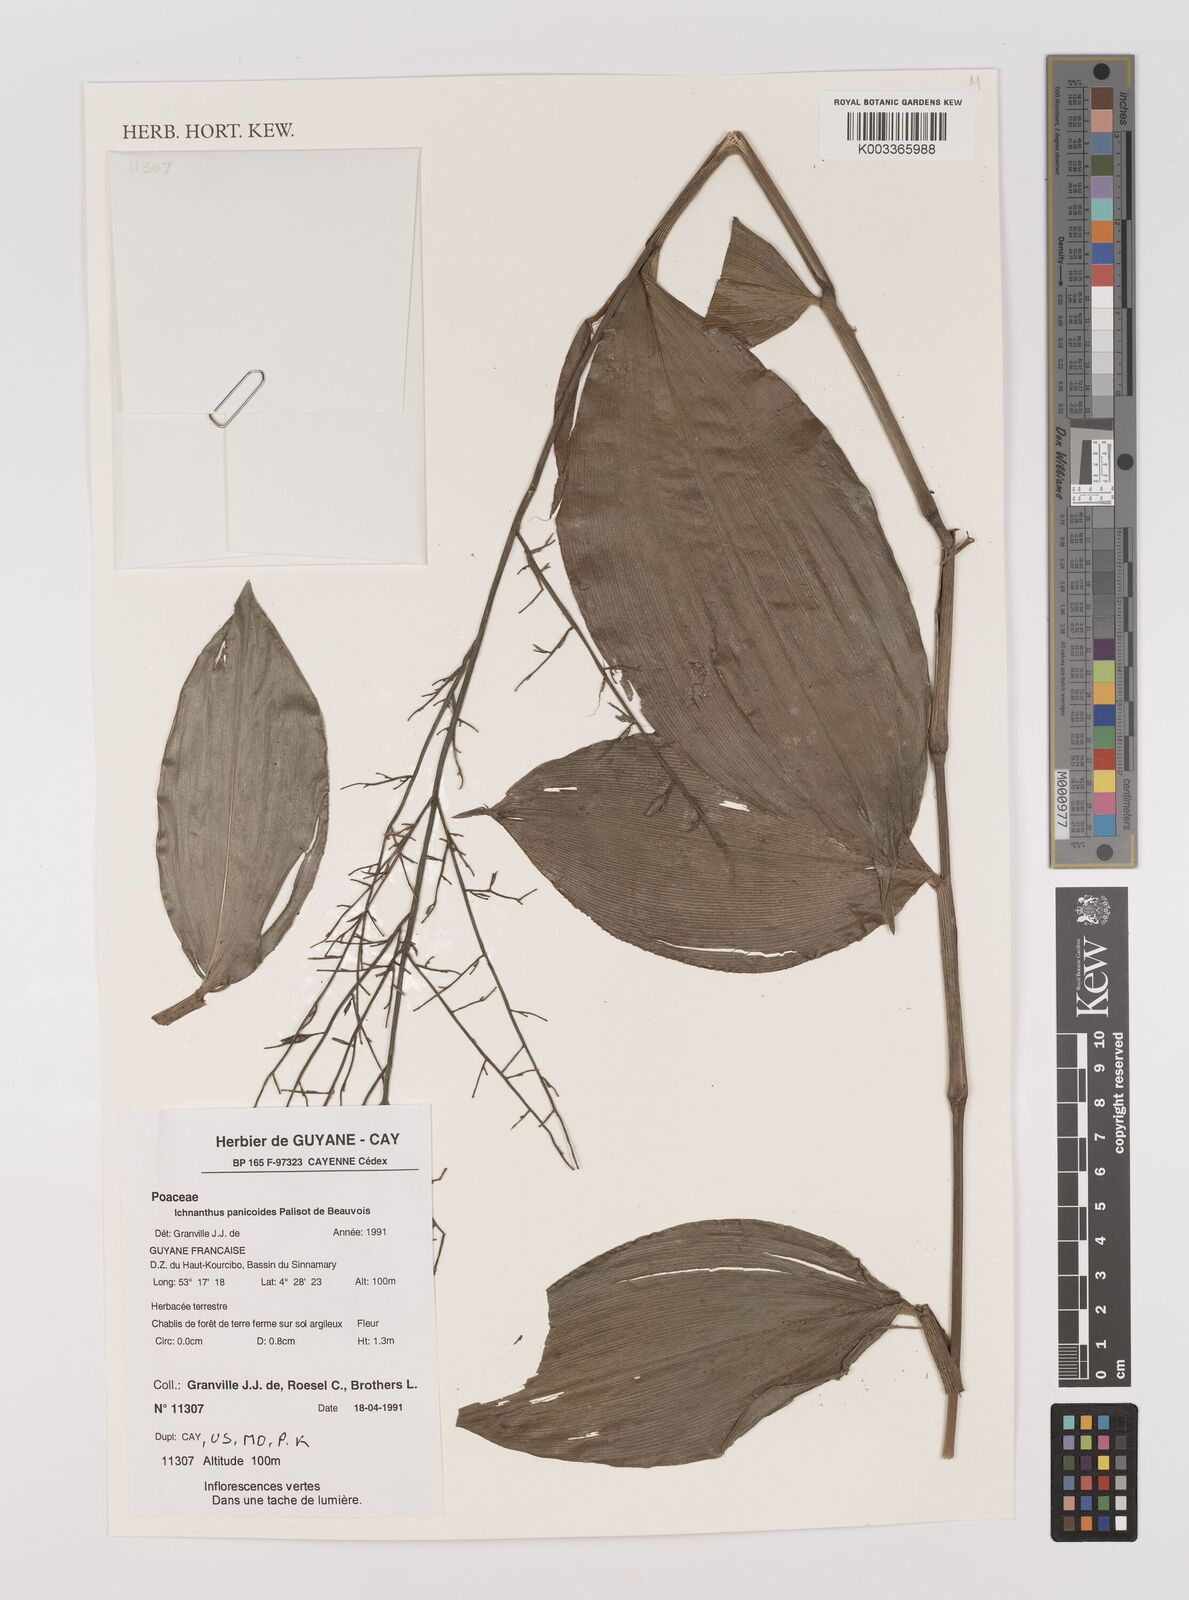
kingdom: Plantae
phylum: Tracheophyta
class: Liliopsida
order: Poales
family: Poaceae
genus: Ichnanthus
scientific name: Ichnanthus panicoides
